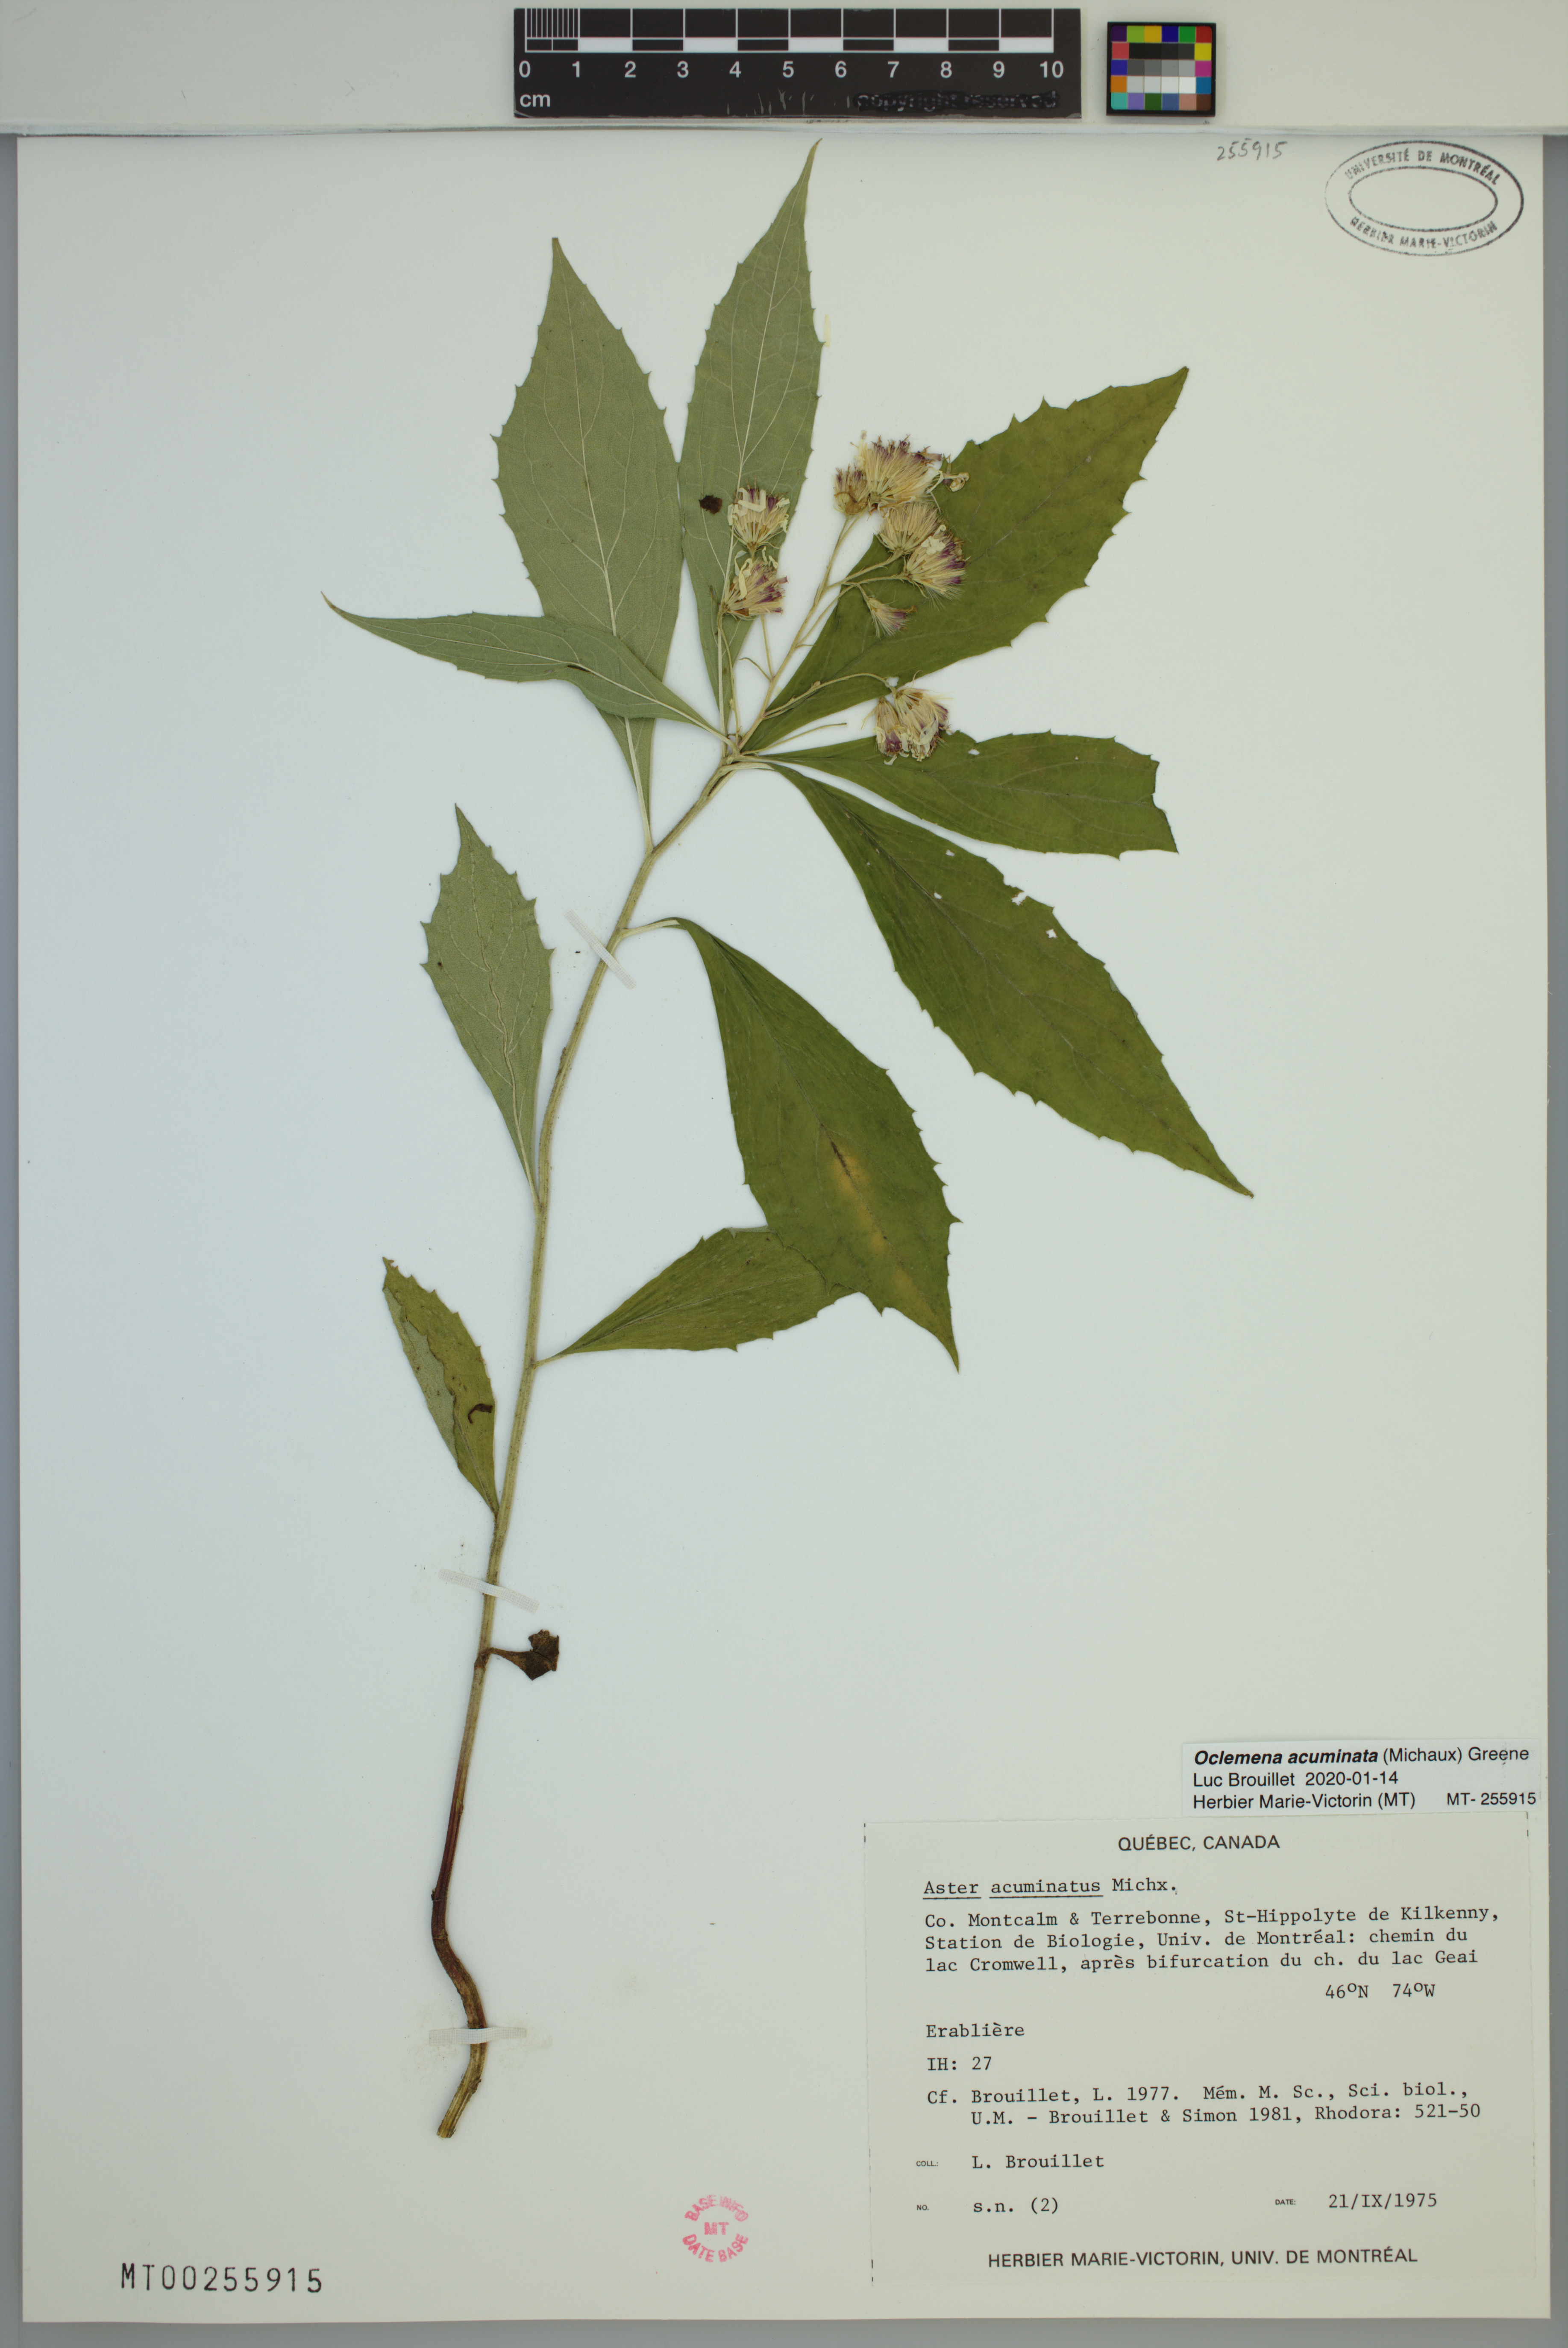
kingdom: Plantae
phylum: Tracheophyta
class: Magnoliopsida
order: Asterales
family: Asteraceae
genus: Oclemena
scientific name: Oclemena acuminata
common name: Mountain aster
